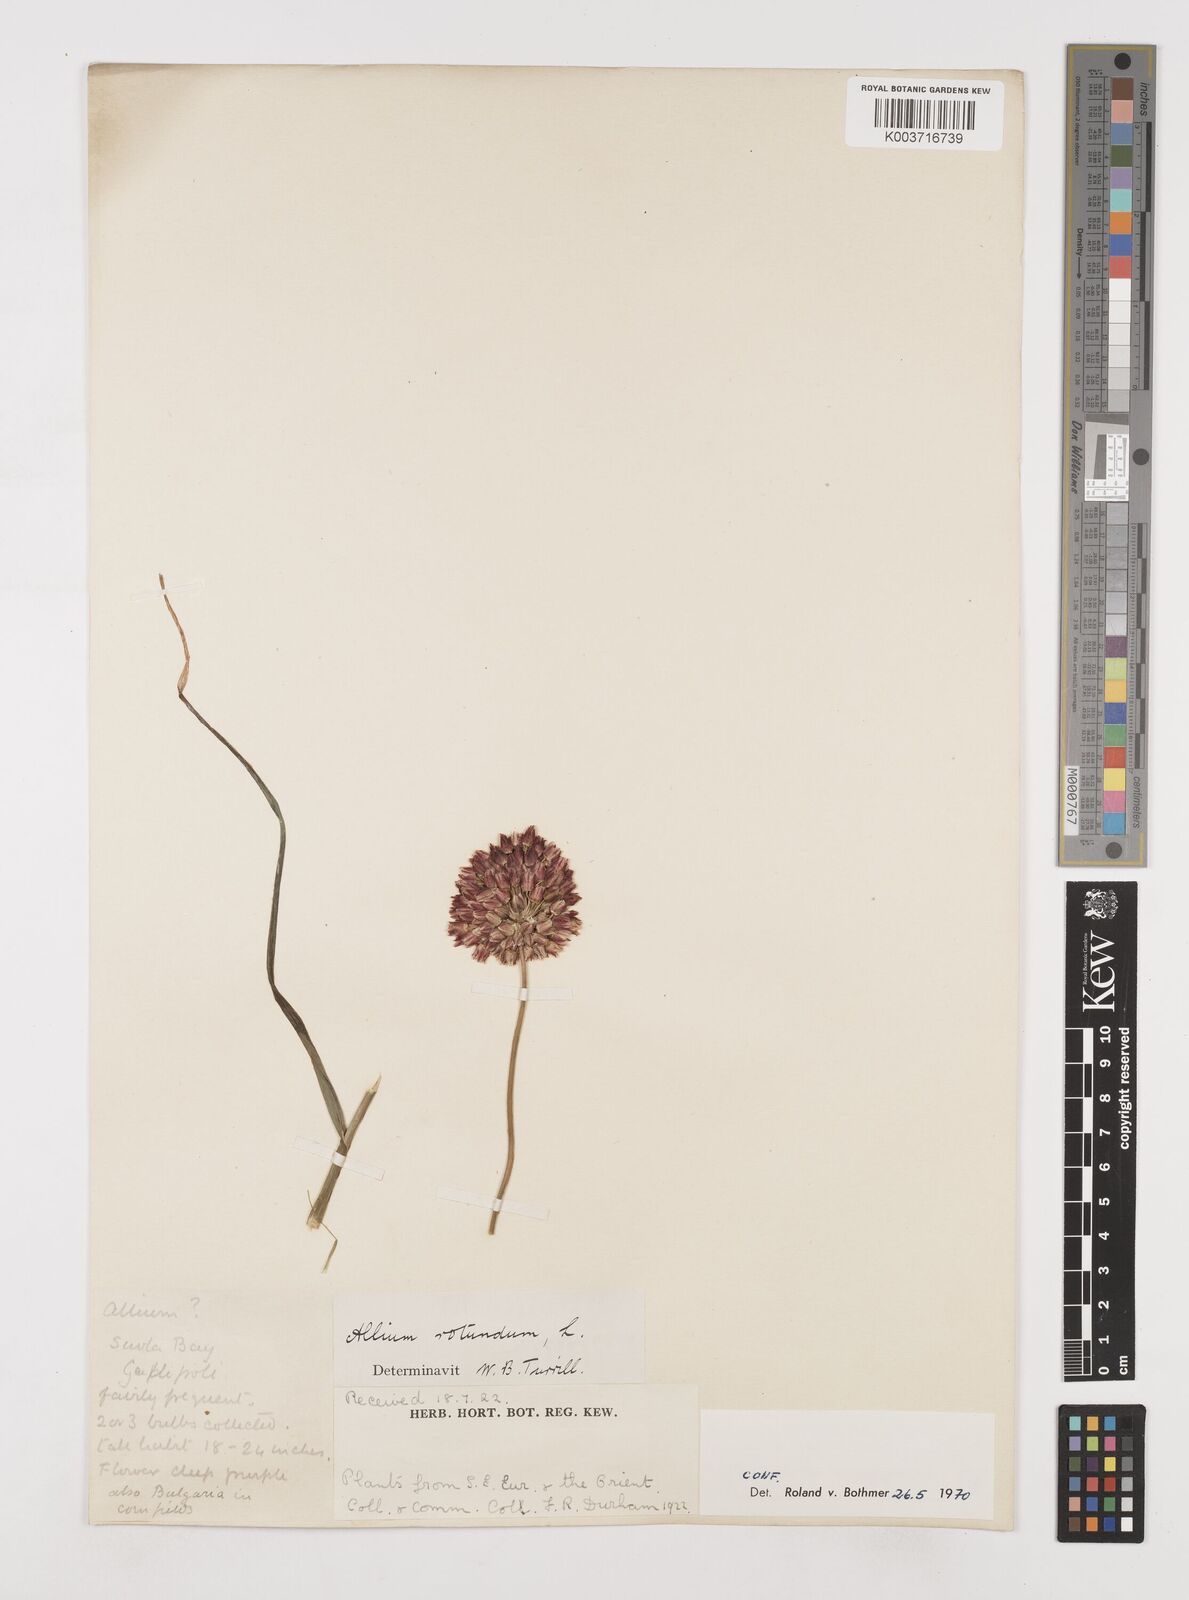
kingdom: Plantae
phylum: Tracheophyta
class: Liliopsida
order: Asparagales
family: Amaryllidaceae
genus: Allium
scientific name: Allium rotundum
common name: Sand leek
